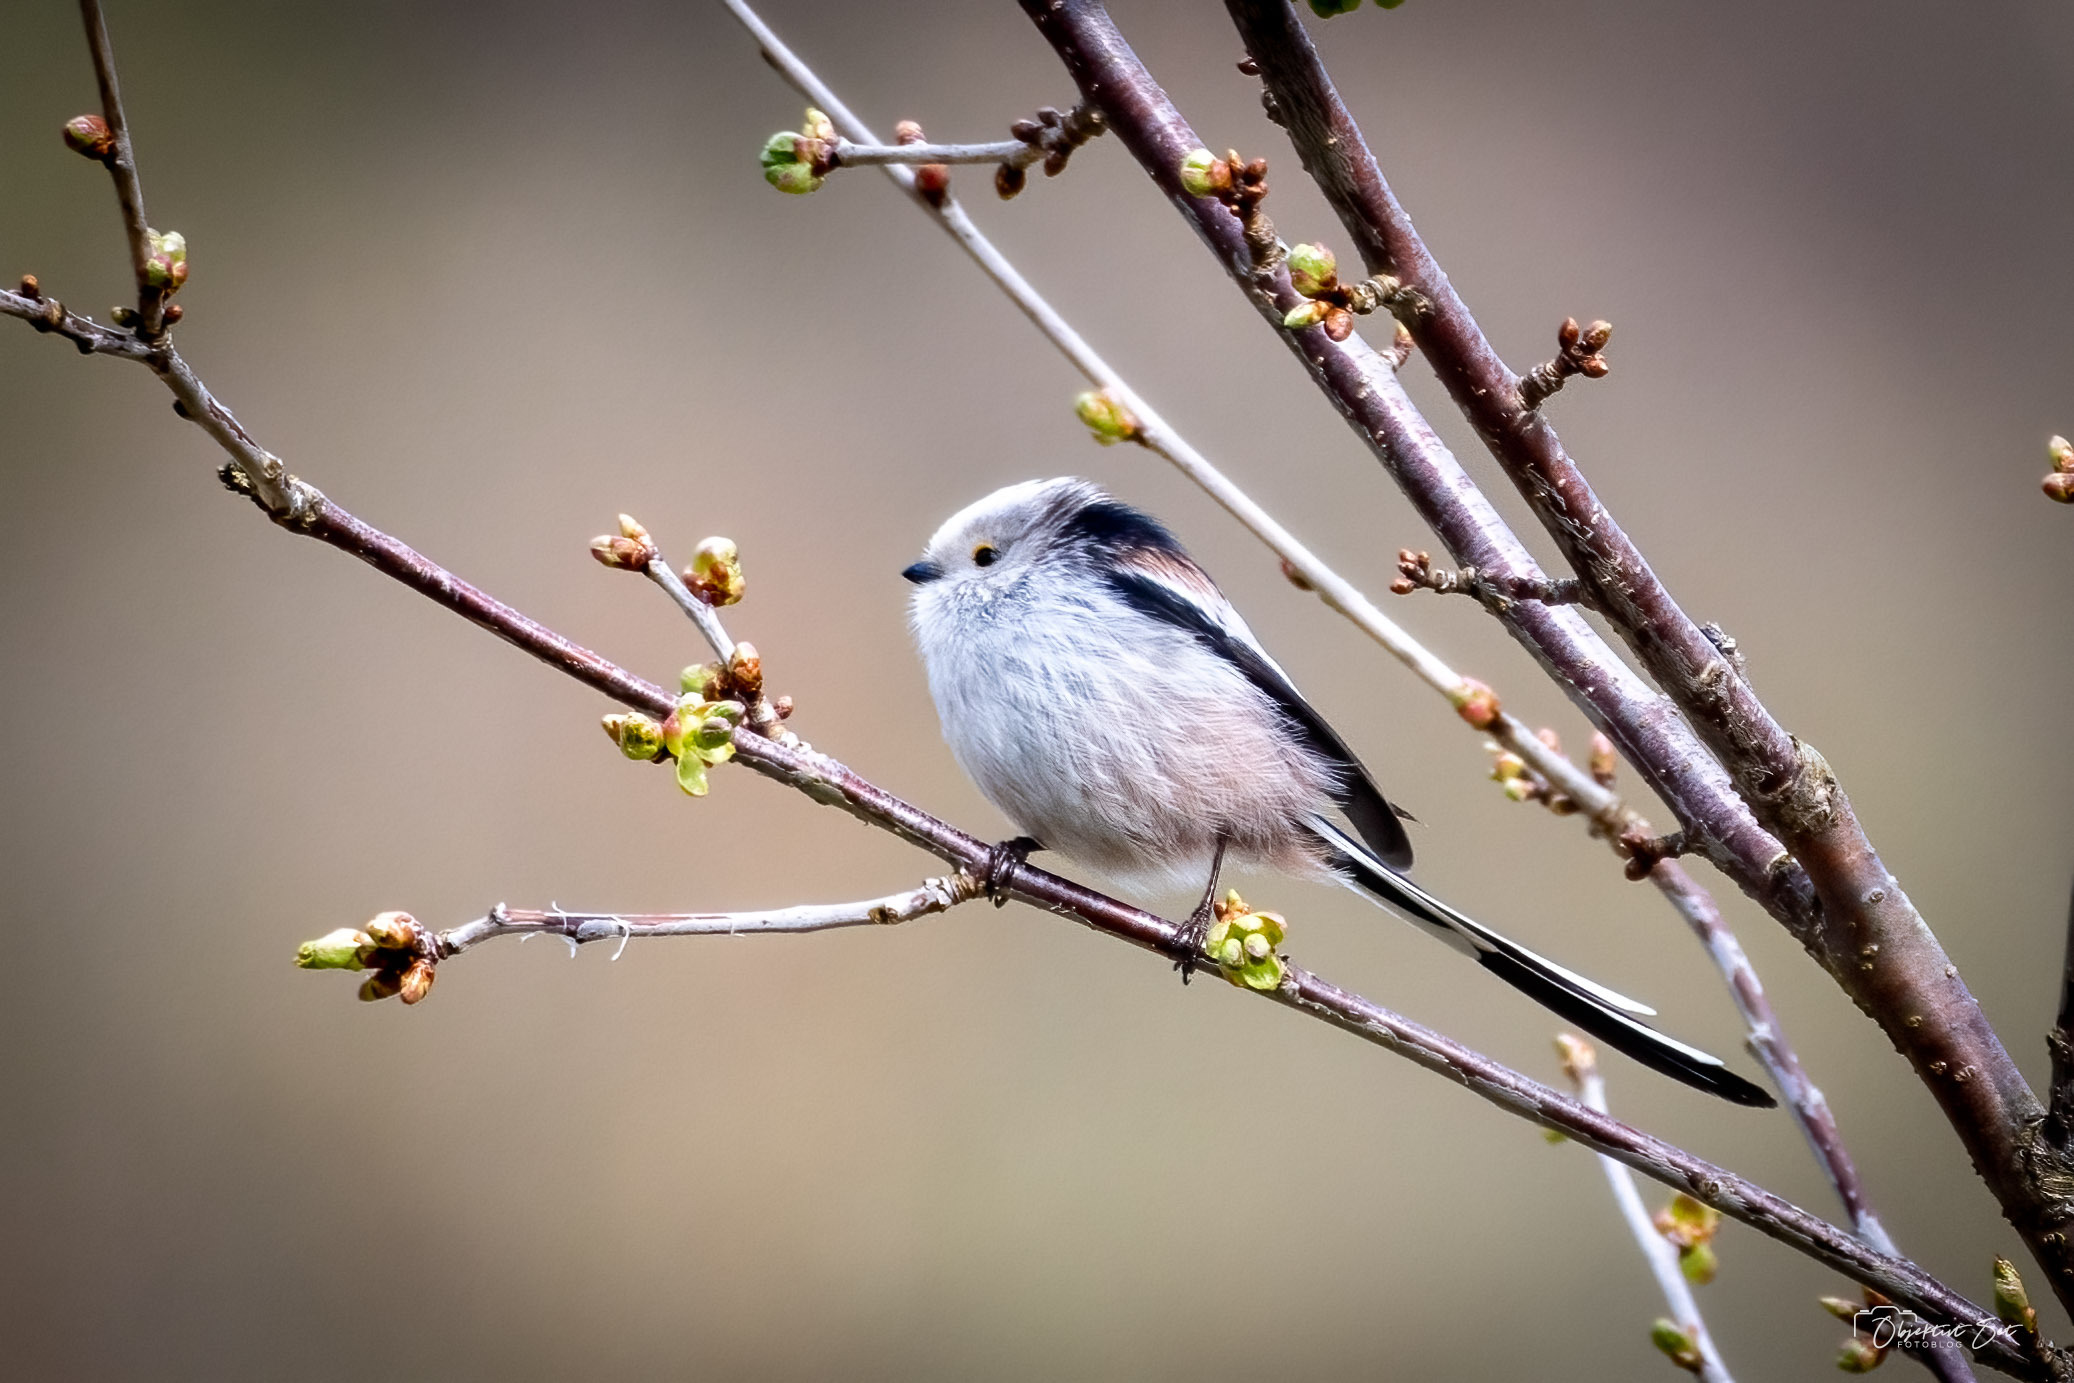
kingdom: Animalia
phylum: Chordata
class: Aves
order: Passeriformes
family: Aegithalidae
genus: Aegithalos
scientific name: Aegithalos caudatus
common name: Halemejse
